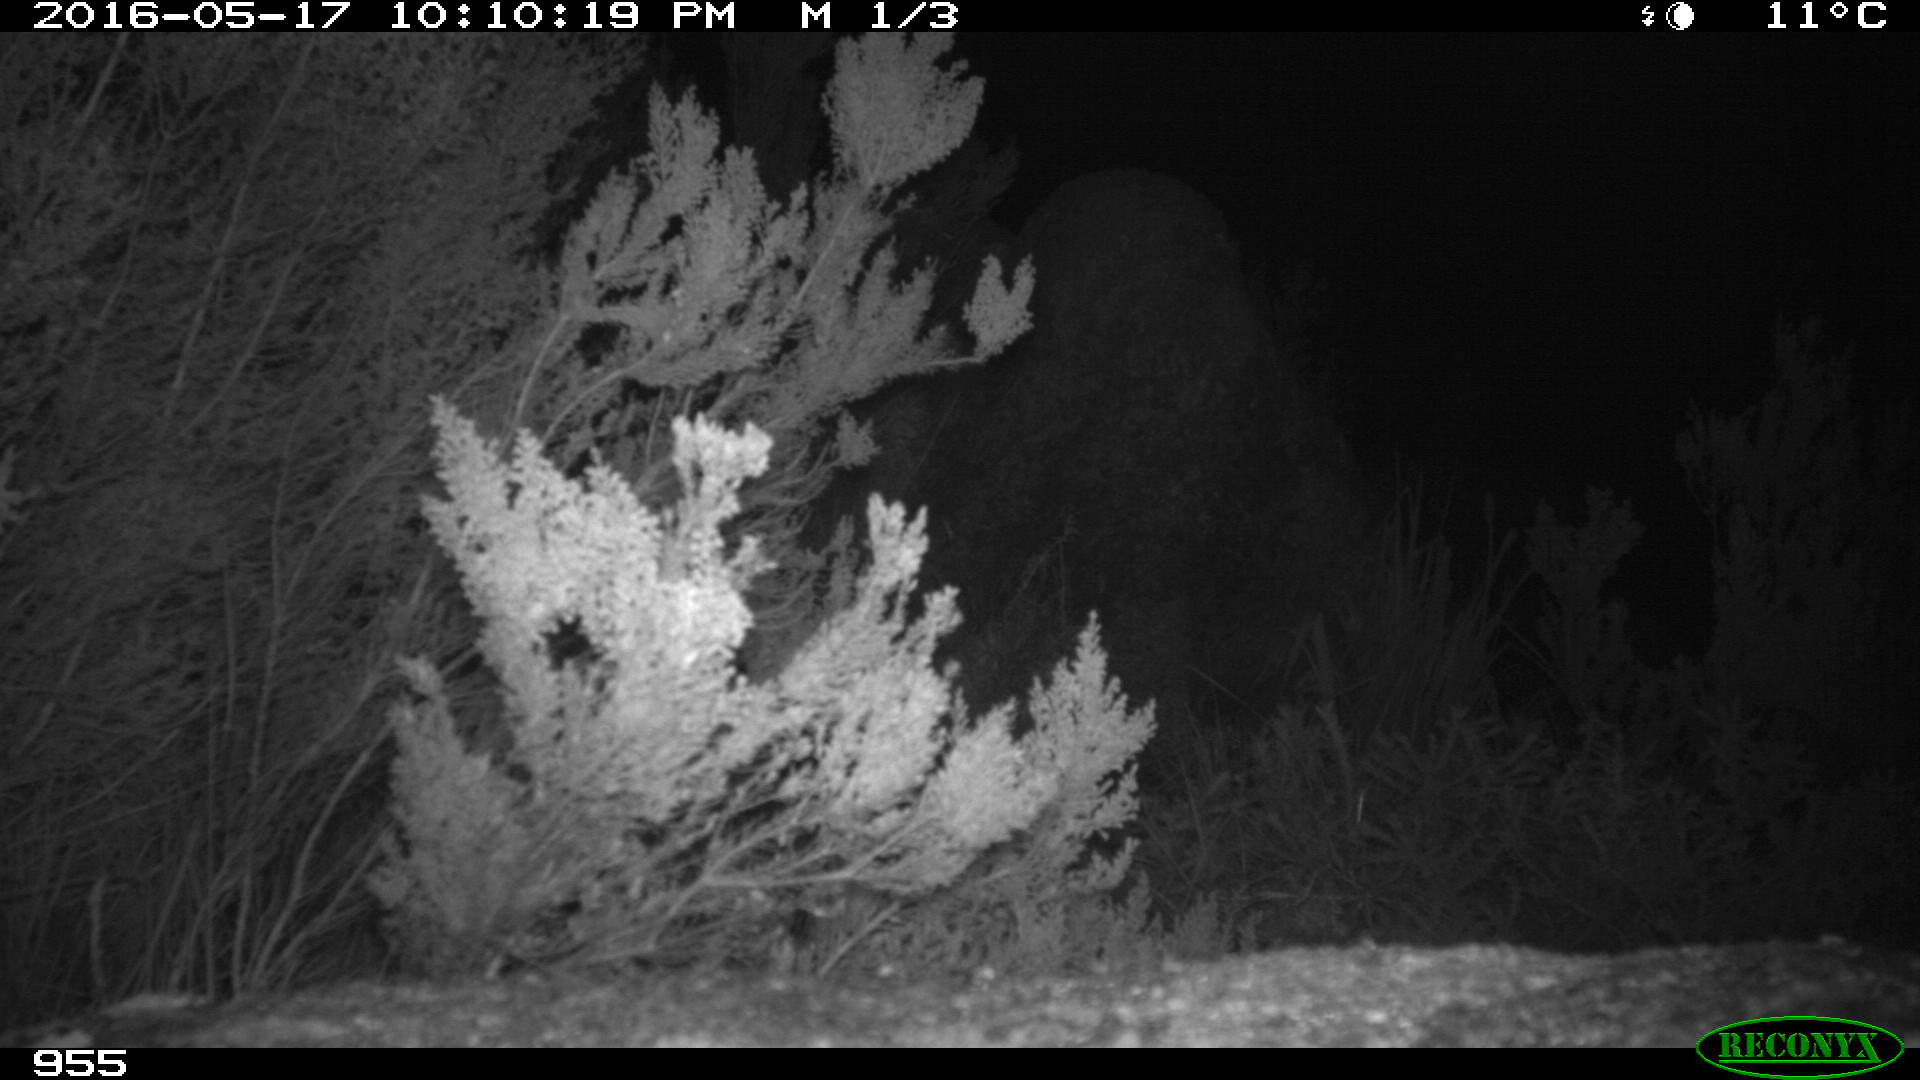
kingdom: Animalia
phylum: Chordata
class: Mammalia
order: Artiodactyla
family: Cervidae
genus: Capreolus
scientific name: Capreolus capreolus
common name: Western roe deer
